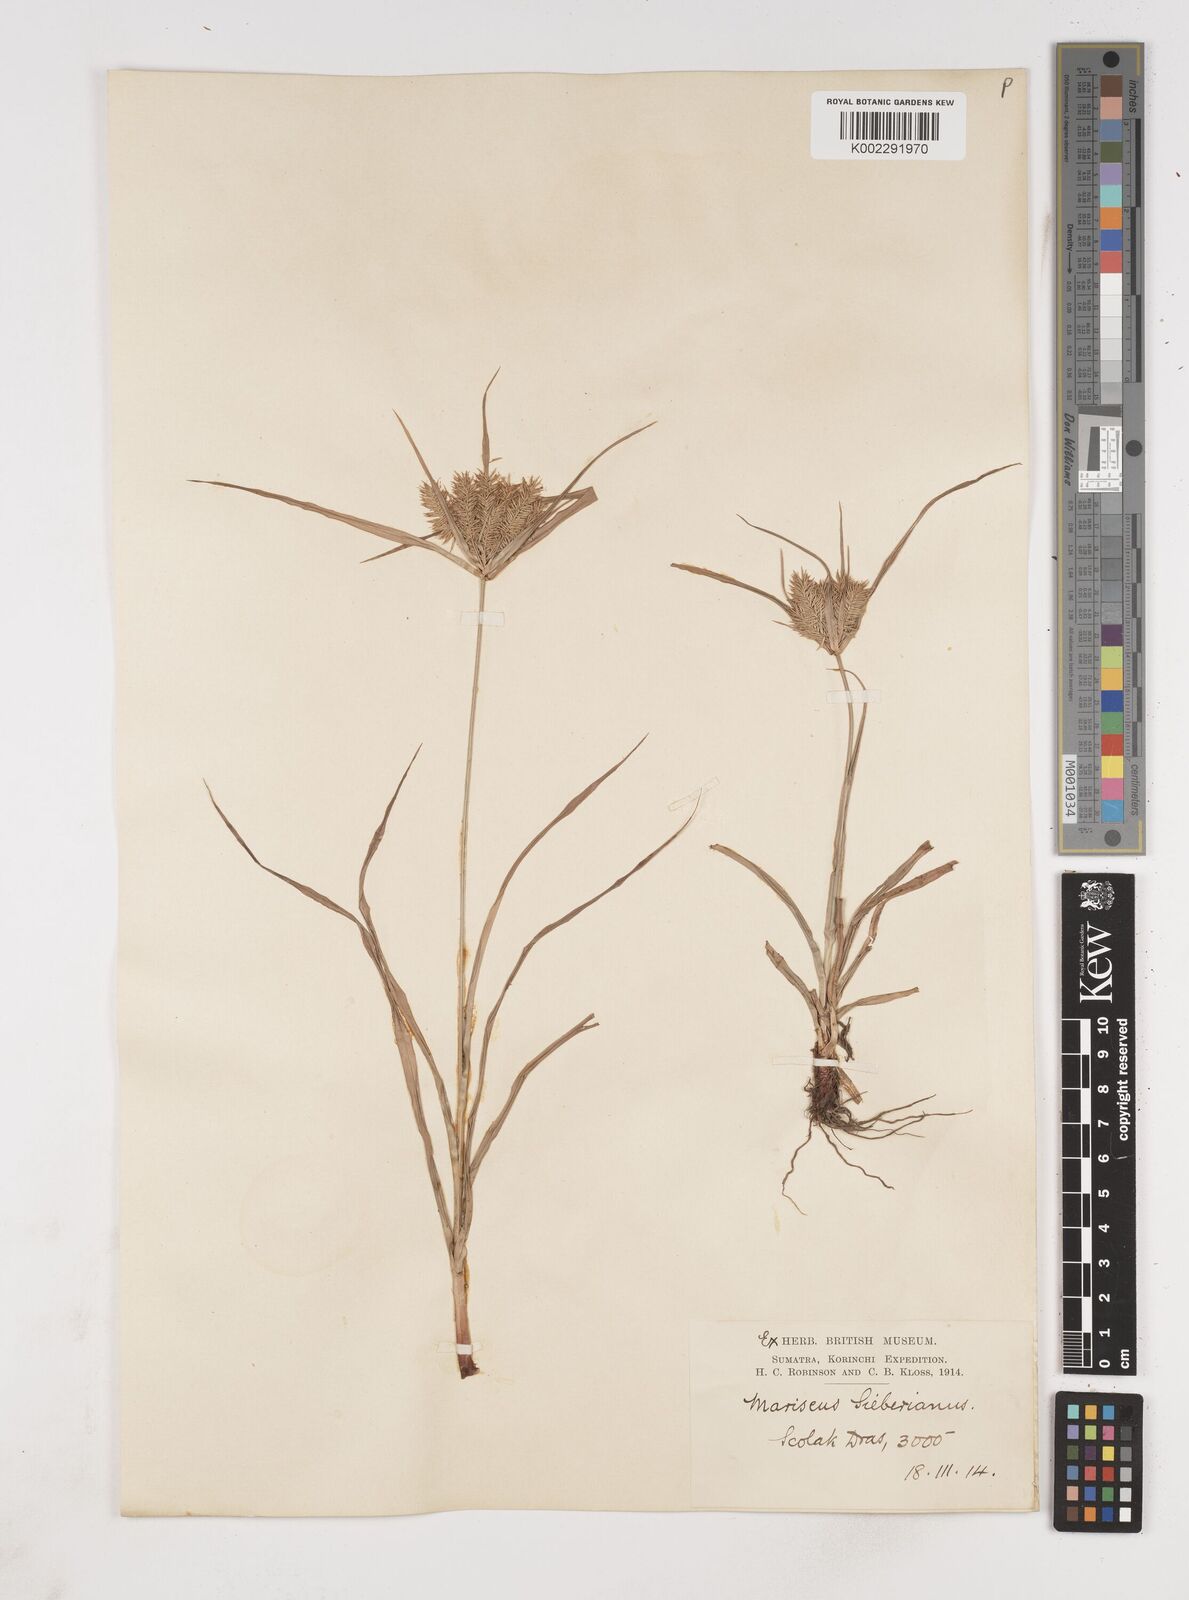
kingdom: Plantae
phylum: Tracheophyta
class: Liliopsida
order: Poales
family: Cyperaceae
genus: Cyperus
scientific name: Cyperus cyperoides
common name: Pacific island flat sedge
